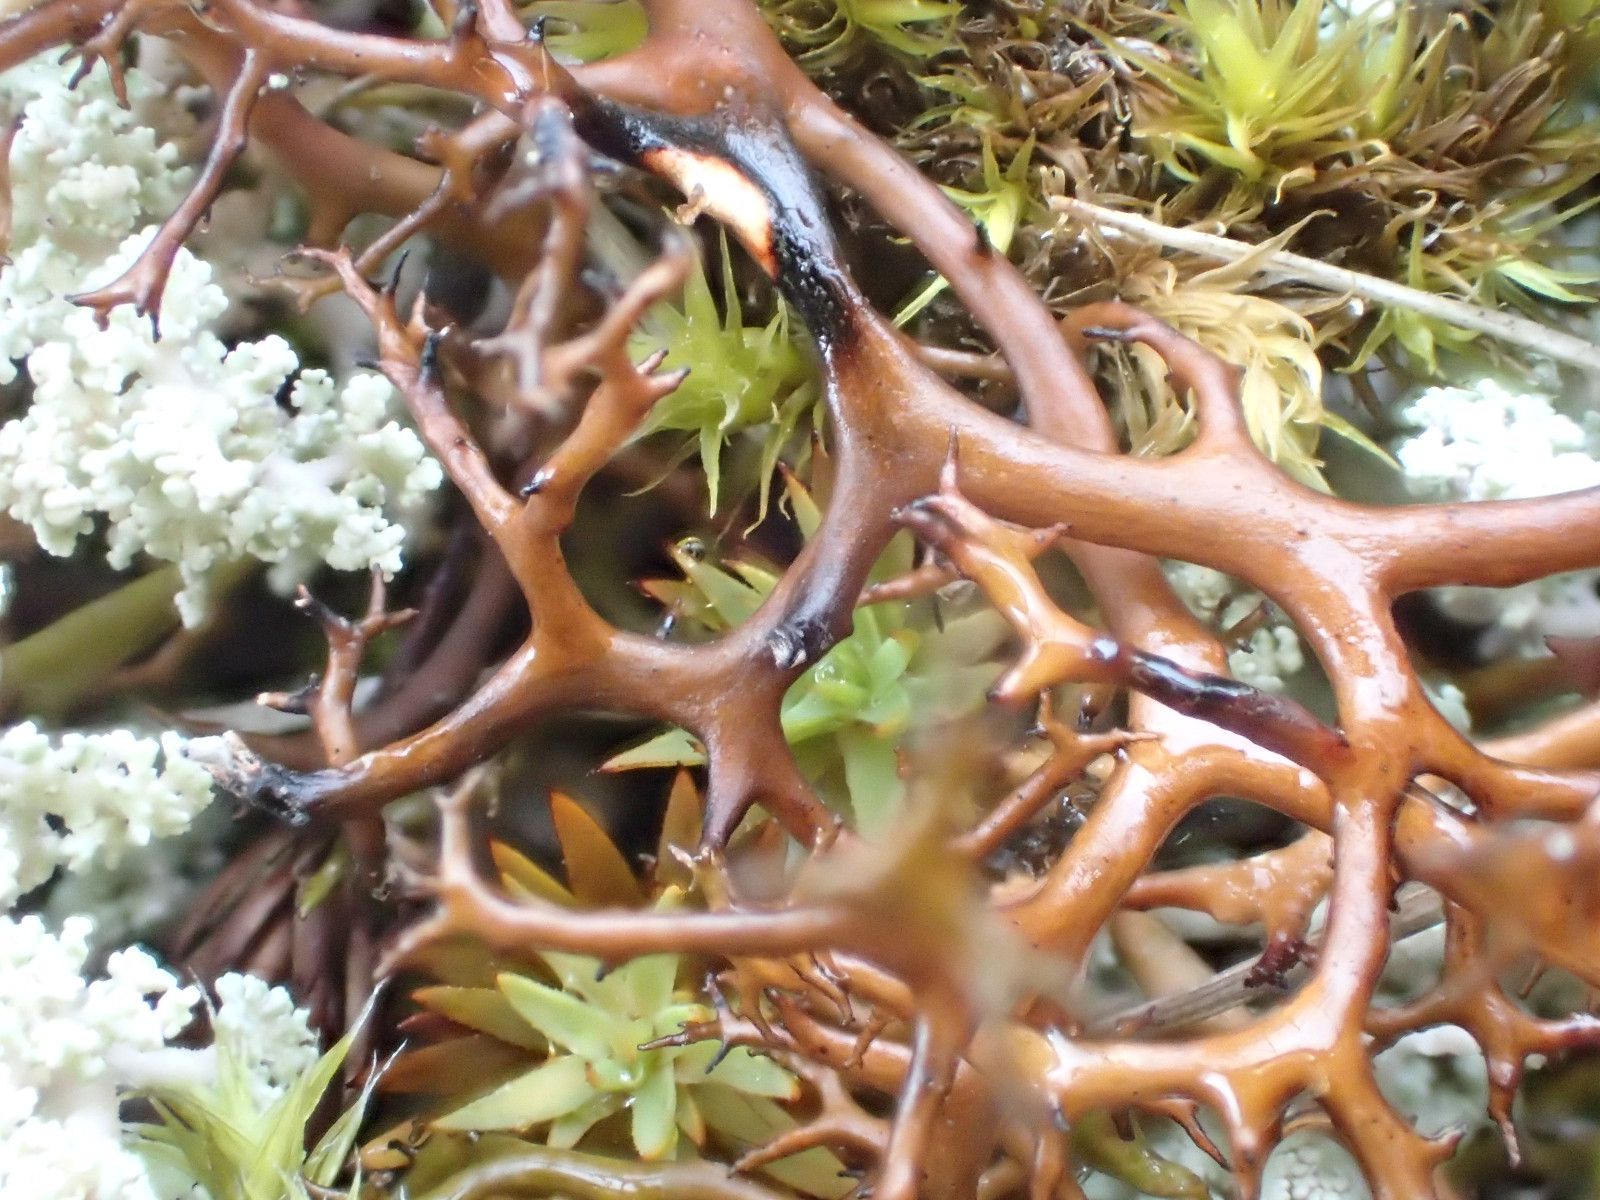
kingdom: Fungi
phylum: Ascomycota
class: Lecanoromycetes
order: Lecanorales
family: Parmeliaceae
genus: Cetraria
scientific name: Cetraria aculeata
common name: grubet tjørnelav
